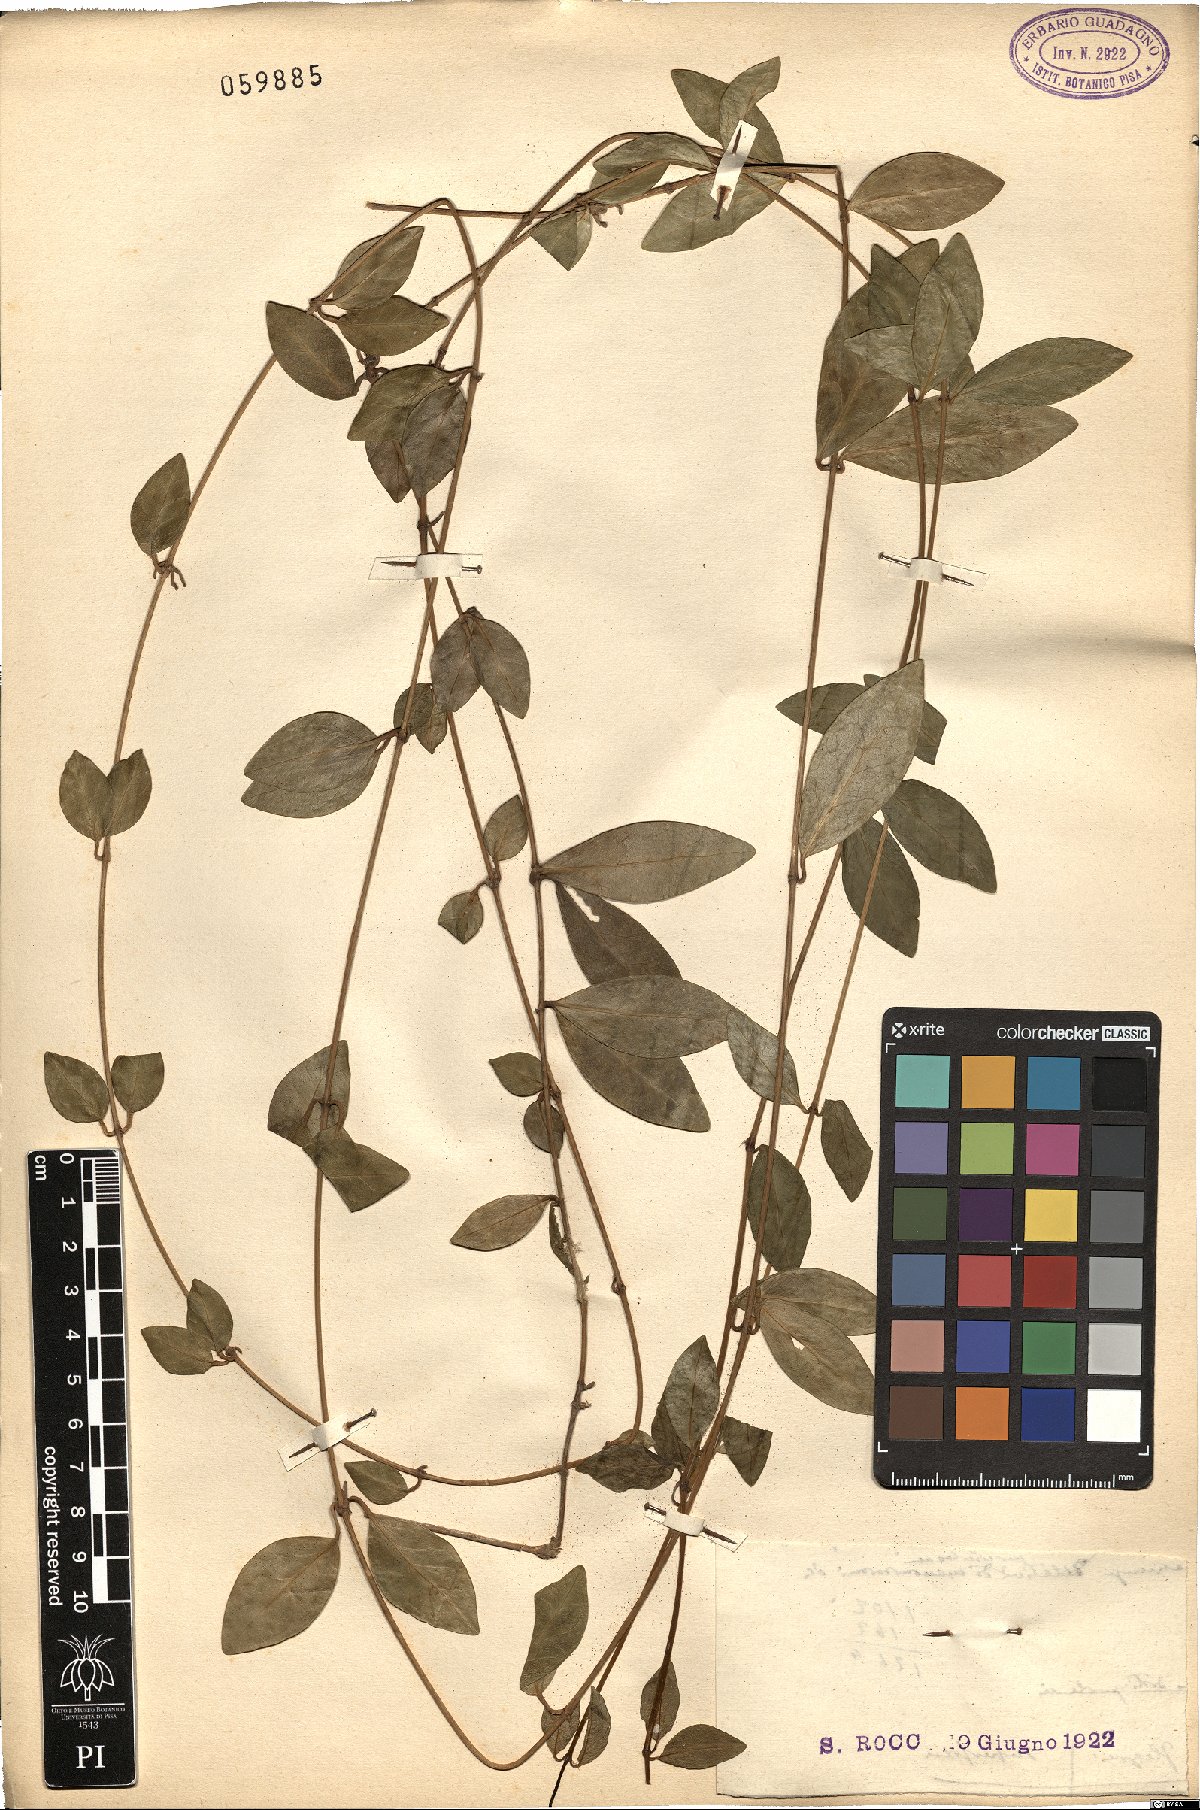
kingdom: Plantae
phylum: Tracheophyta
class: Magnoliopsida
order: Gentianales
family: Apocynaceae
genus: Vinca
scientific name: Vinca minor
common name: Lesser periwinkle
